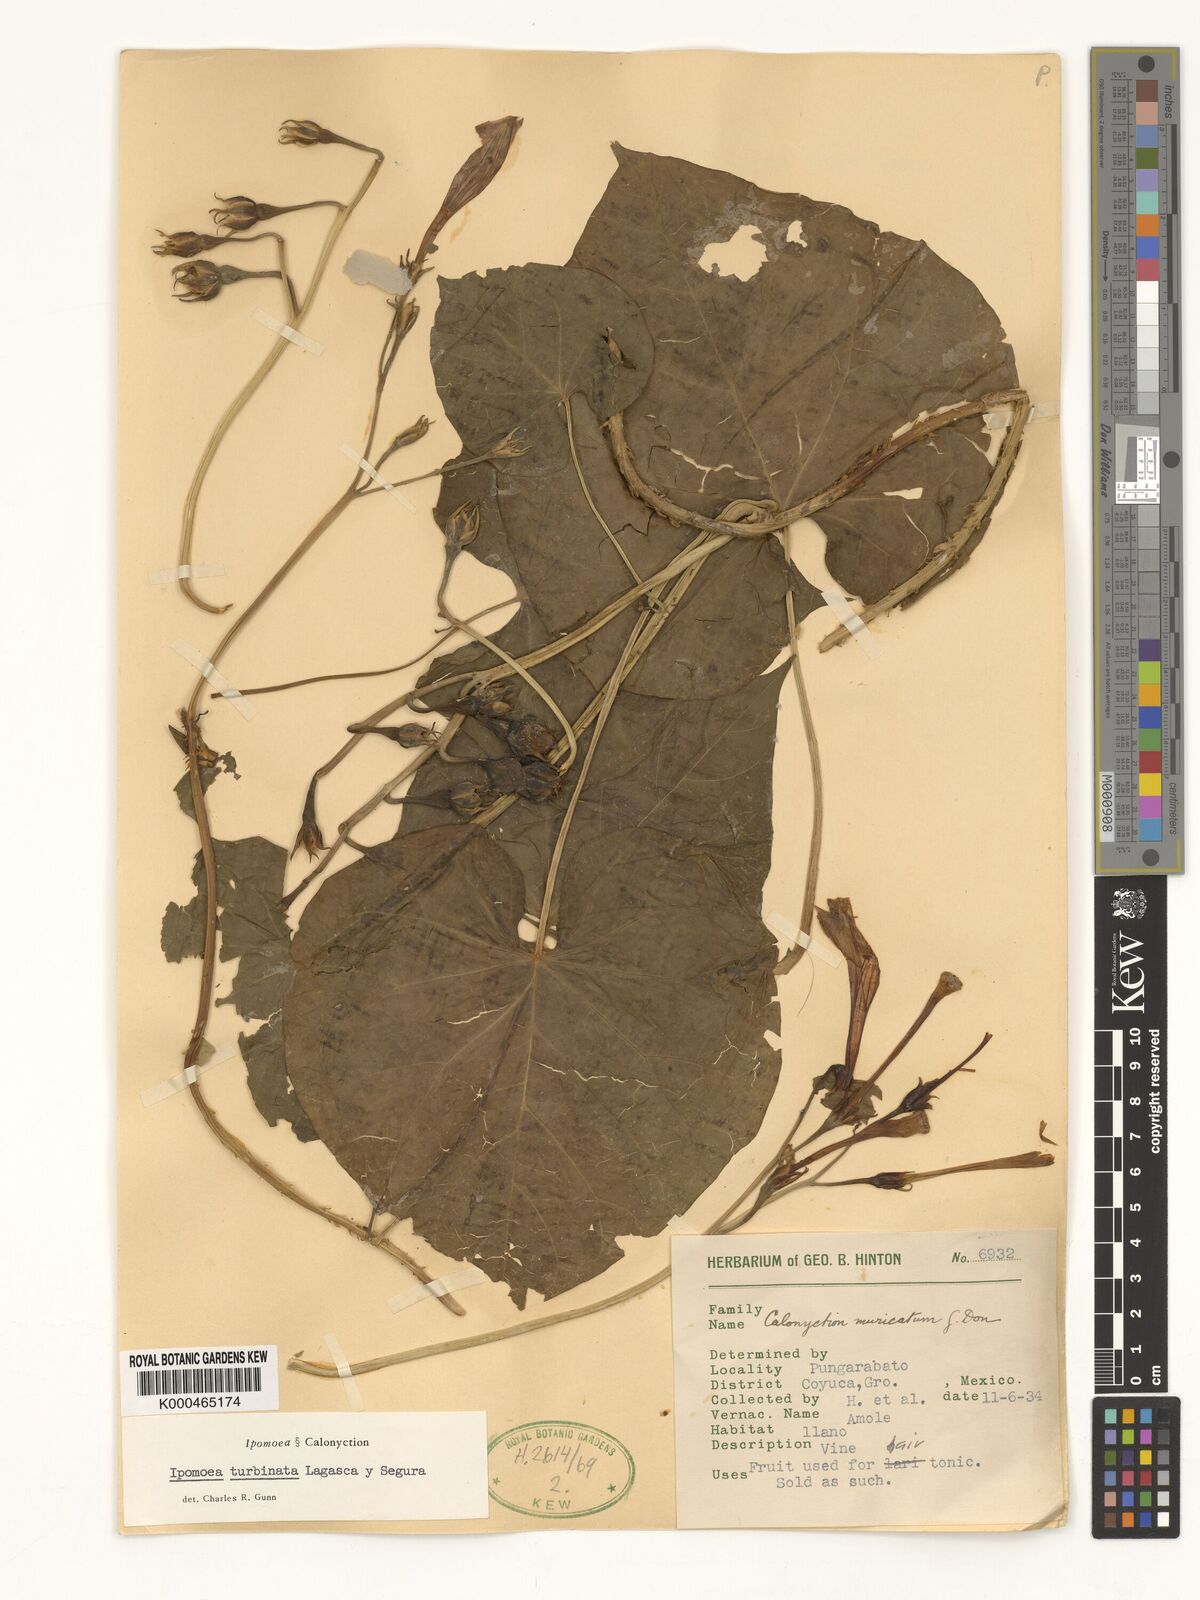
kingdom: Plantae
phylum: Tracheophyta
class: Magnoliopsida
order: Solanales
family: Convolvulaceae
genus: Ipomoea
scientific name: Ipomoea muricata
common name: Lilac-bell
